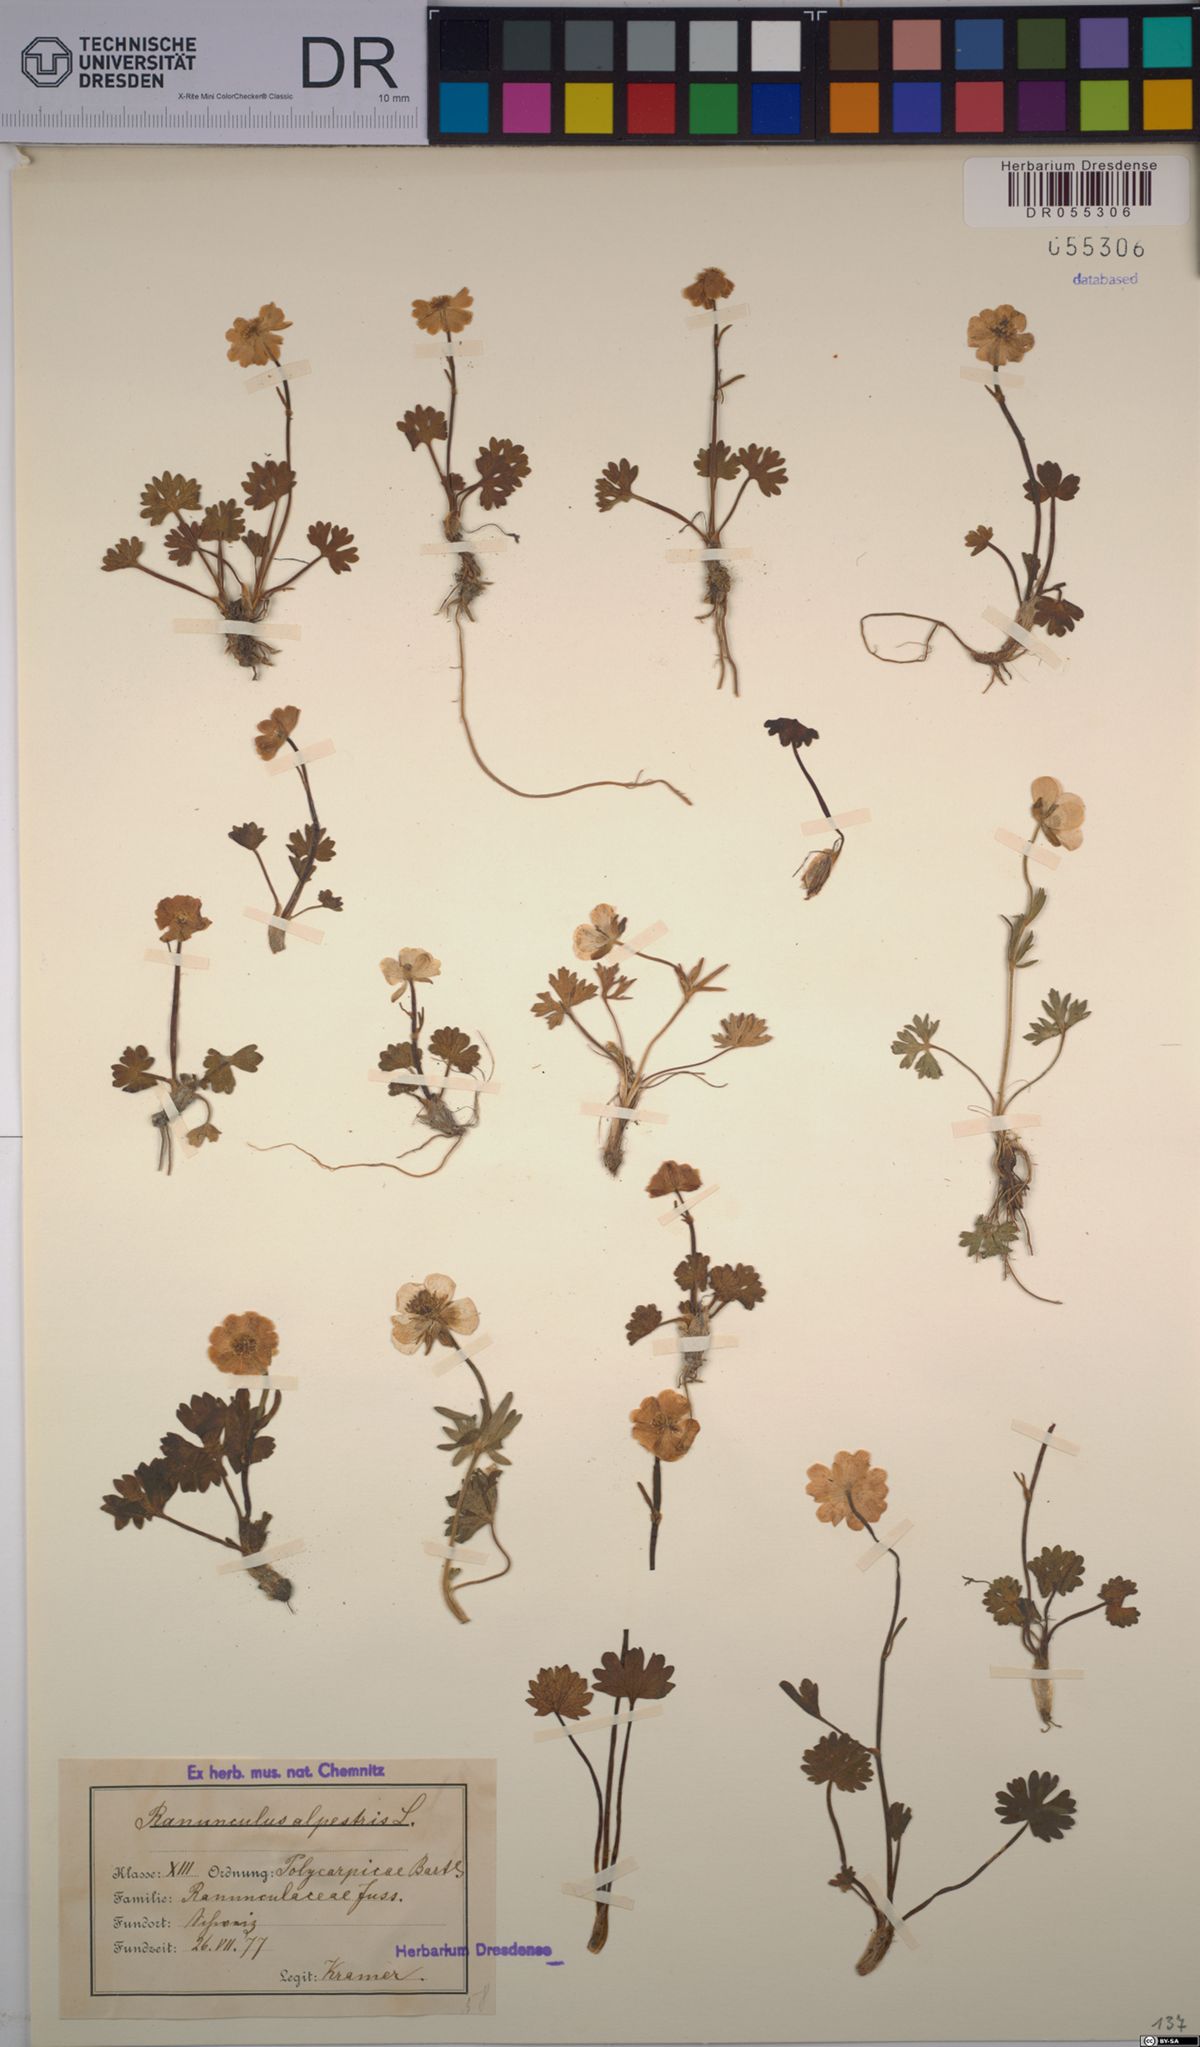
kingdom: Plantae
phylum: Tracheophyta
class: Magnoliopsida
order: Ranunculales
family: Ranunculaceae
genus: Ranunculus
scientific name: Ranunculus alpestris
